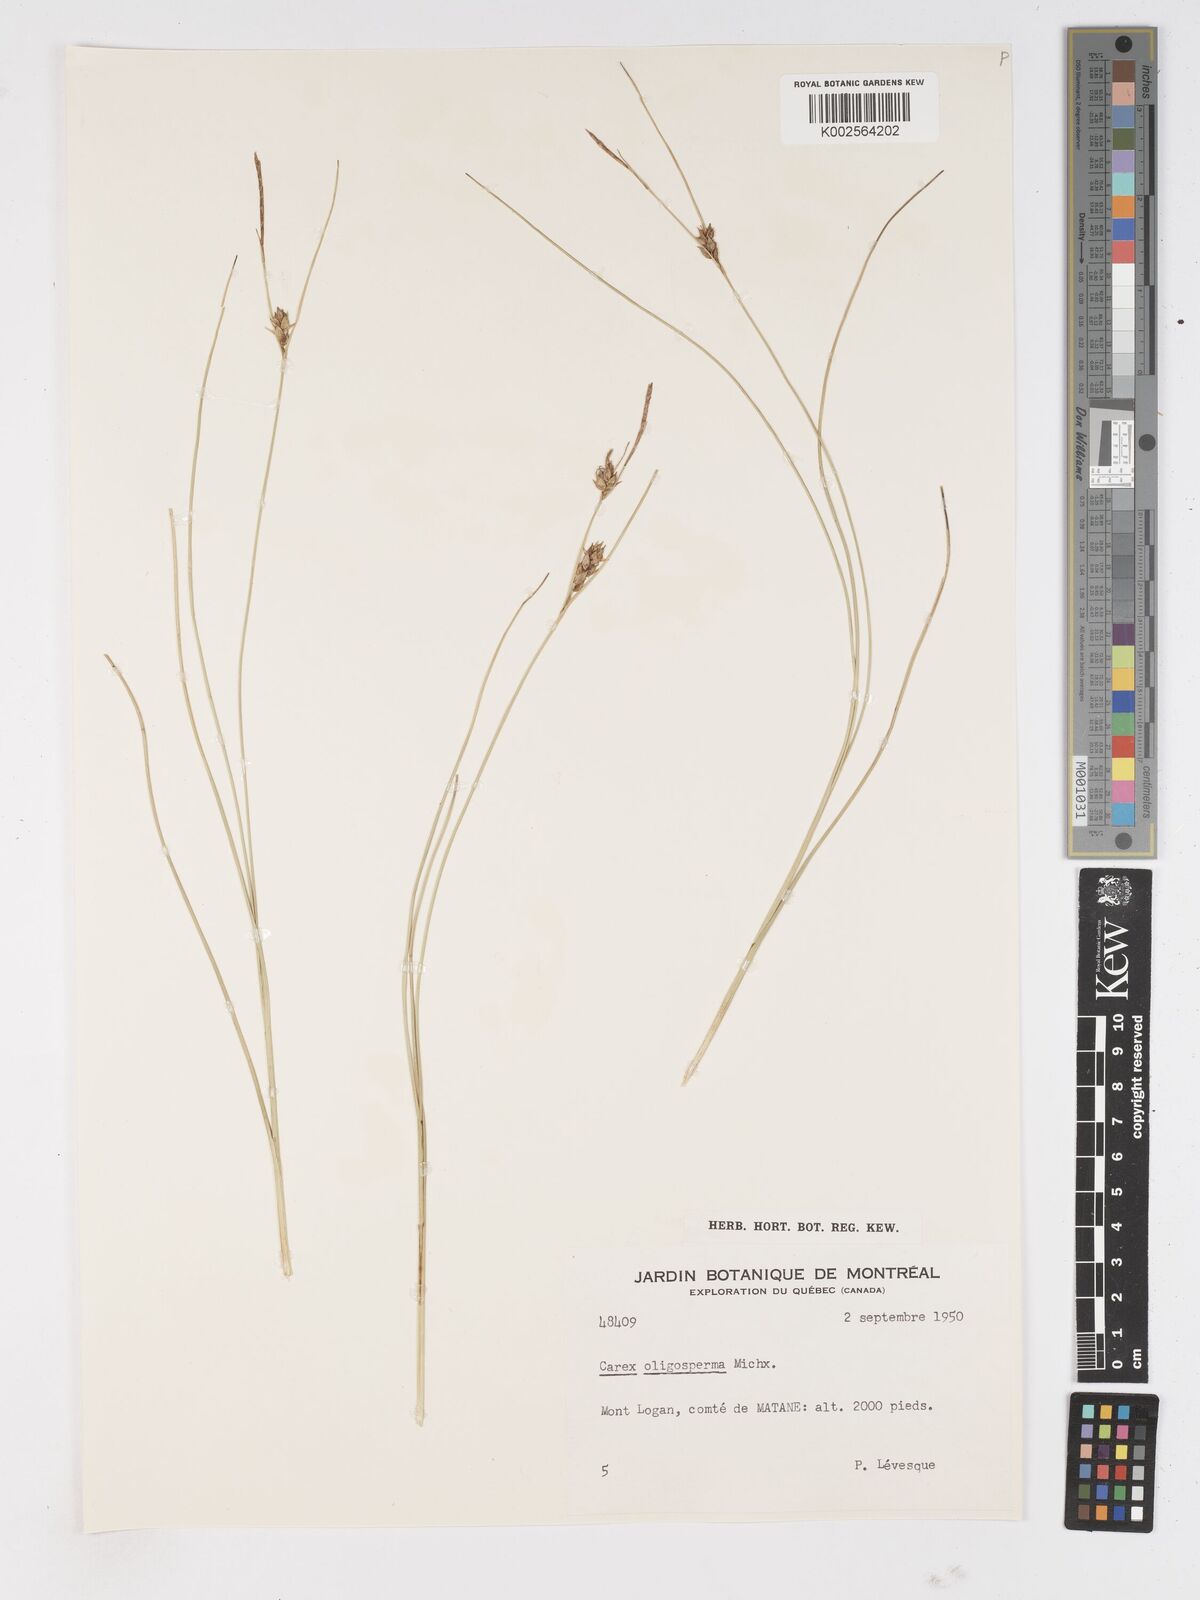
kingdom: Plantae
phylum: Tracheophyta
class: Liliopsida
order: Poales
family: Cyperaceae
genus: Carex
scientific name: Carex oligosperma
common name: Few-seed sedge
